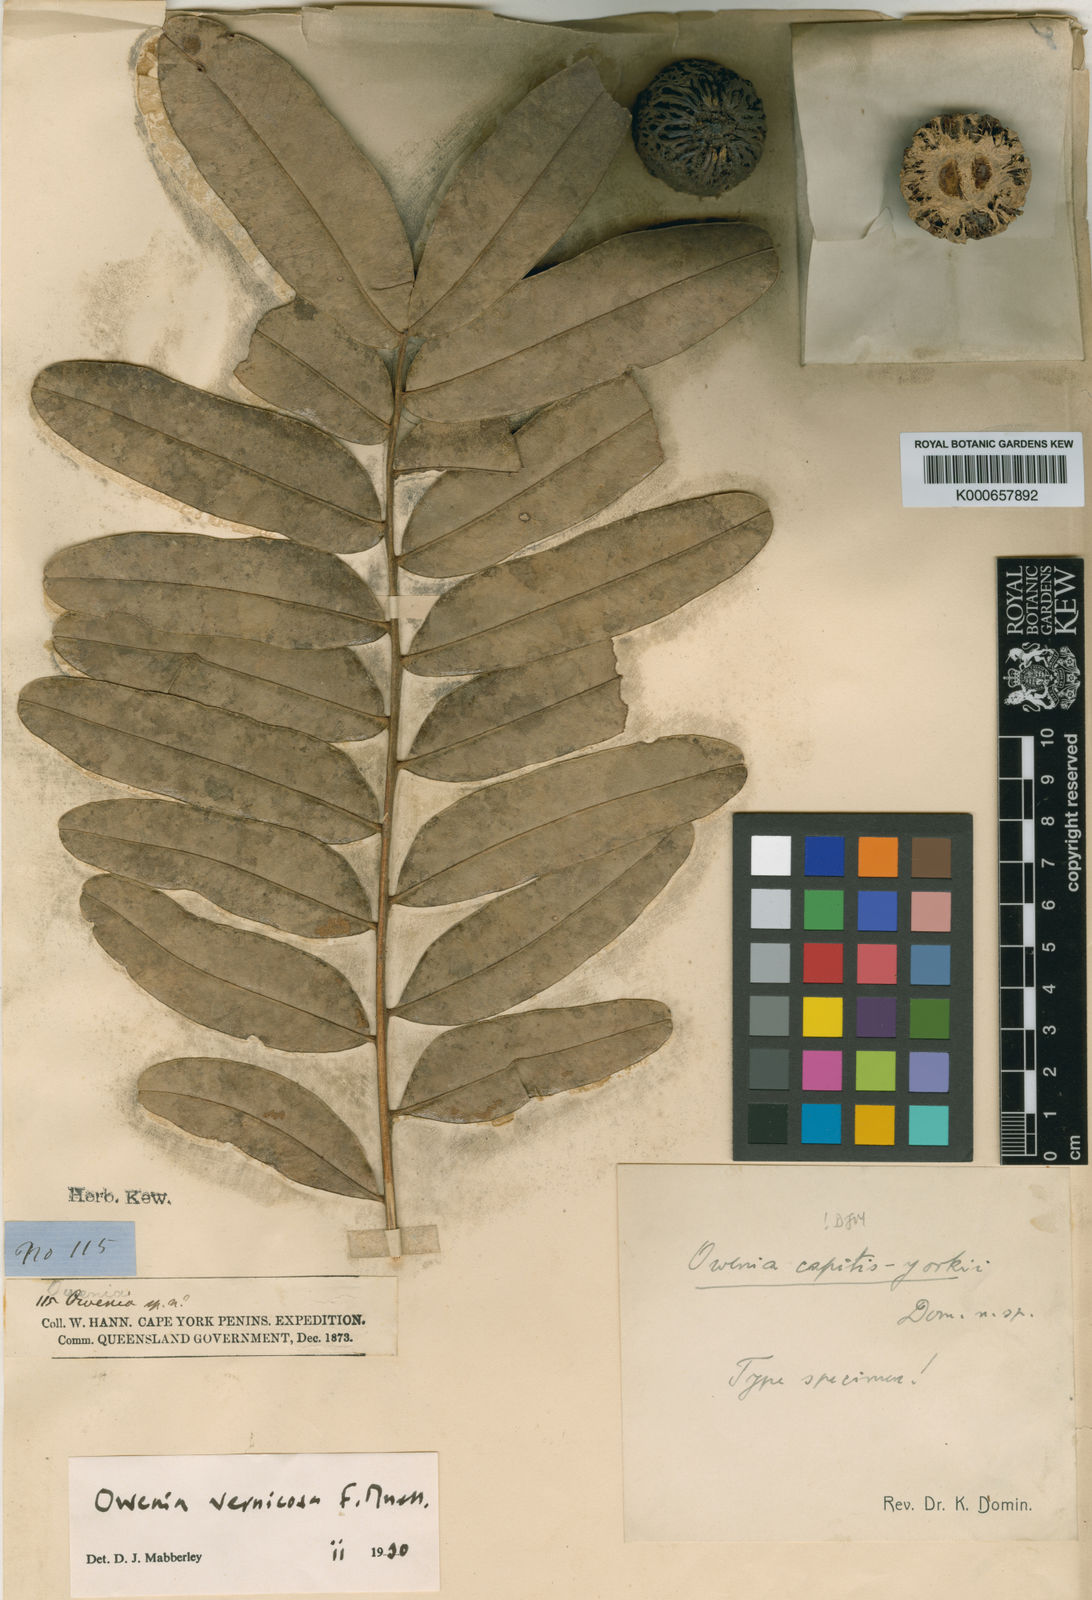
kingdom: Plantae
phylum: Tracheophyta
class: Magnoliopsida
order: Sapindales
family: Meliaceae
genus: Owenia
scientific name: Owenia vernicosa
